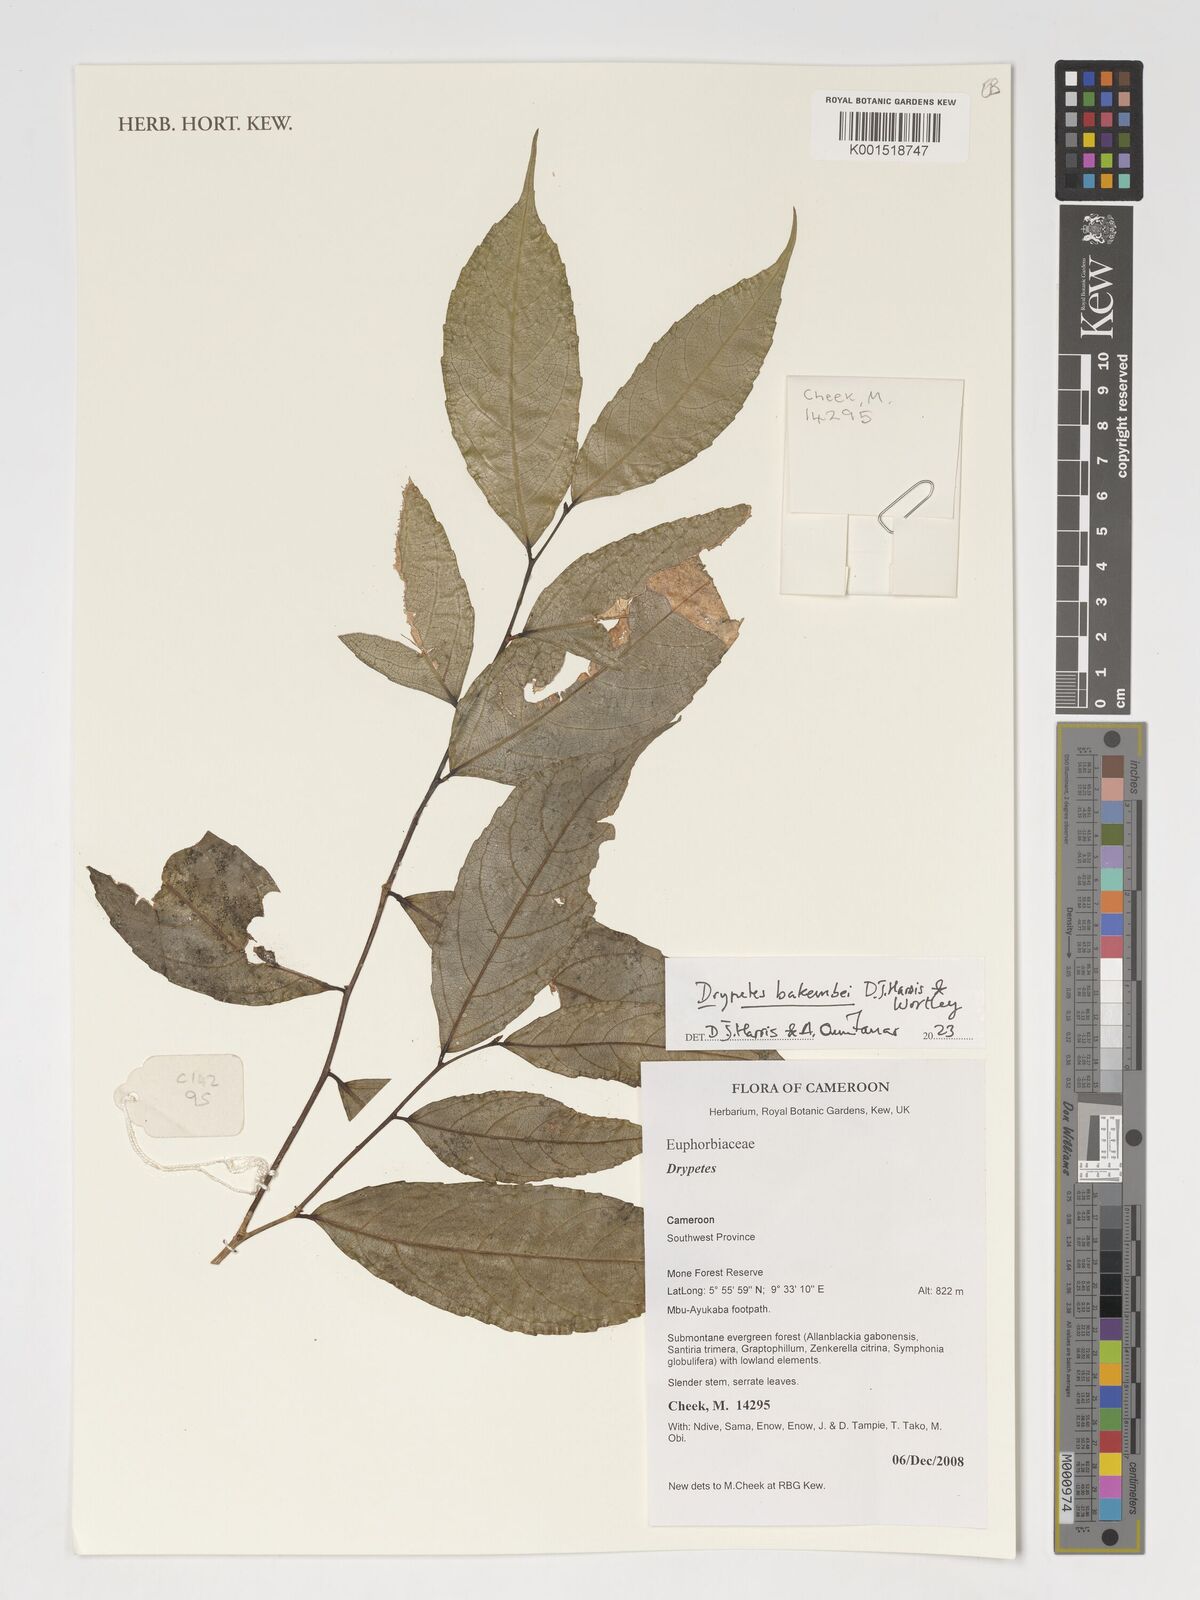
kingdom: Plantae
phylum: Tracheophyta
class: Magnoliopsida
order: Malpighiales
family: Putranjivaceae
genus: Drypetes
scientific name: Drypetes bakembei
